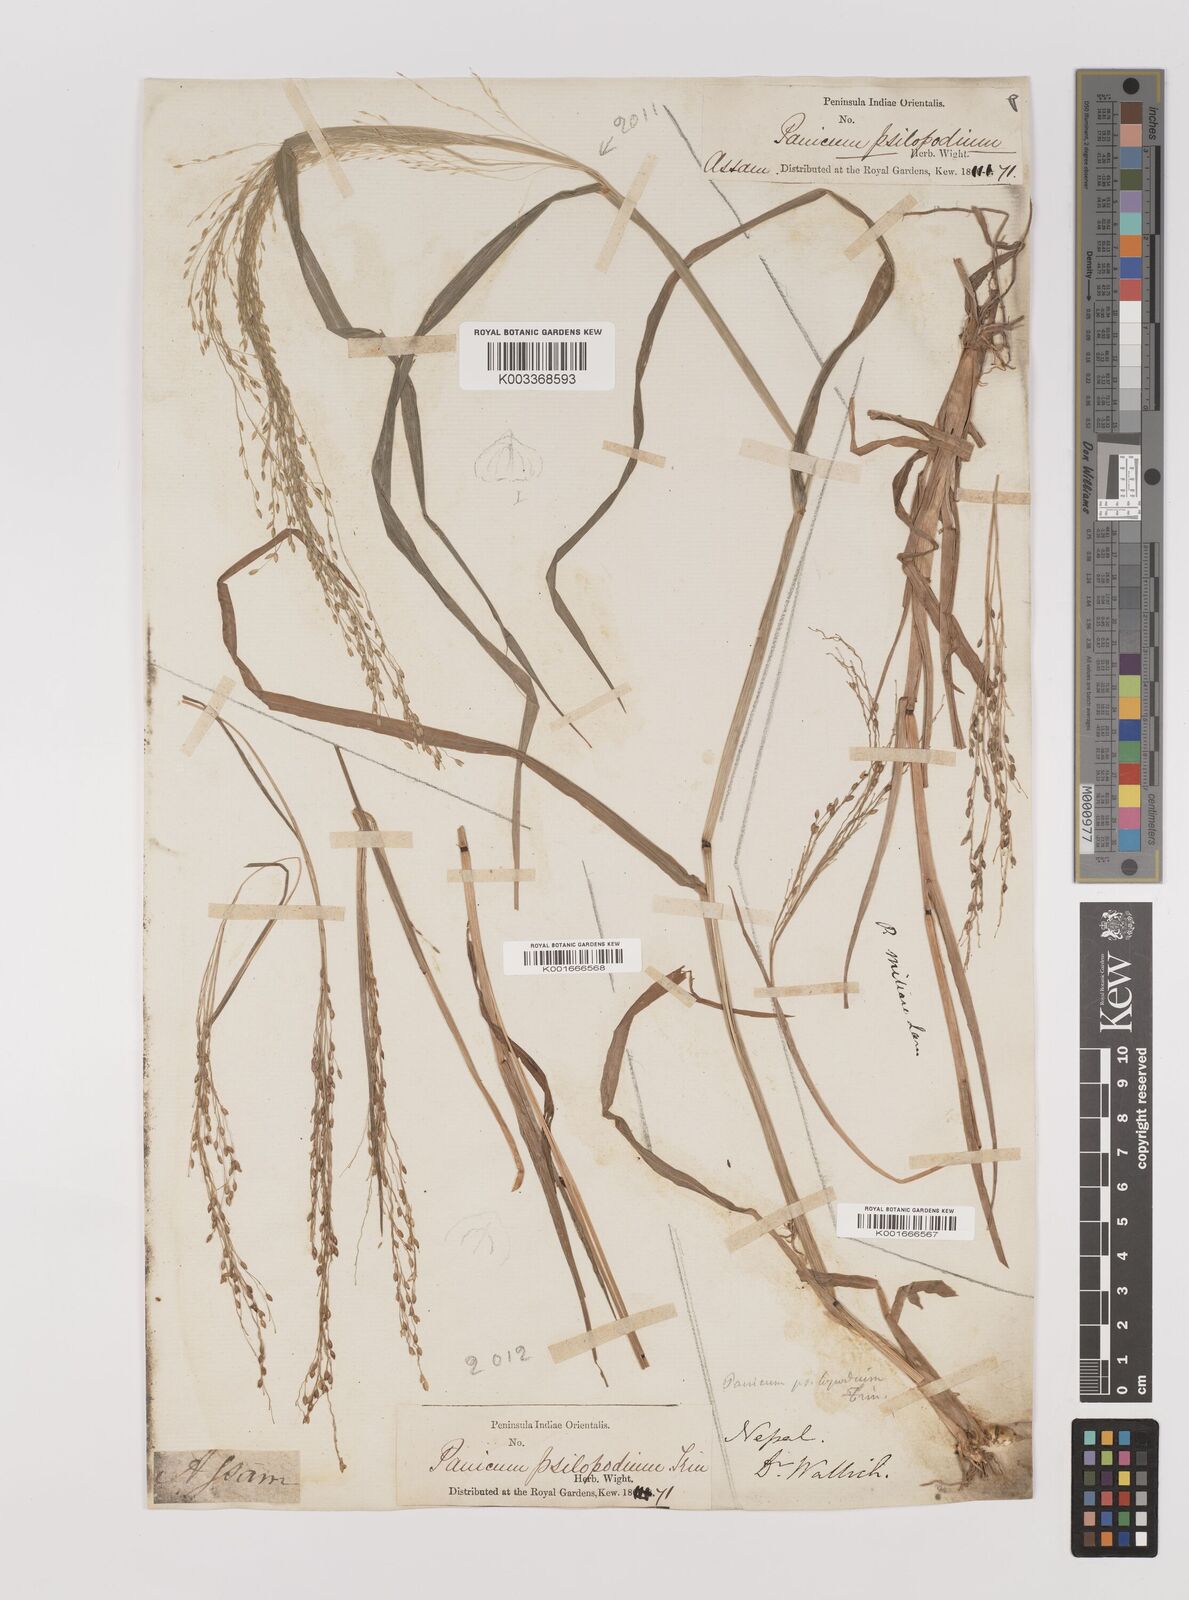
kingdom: Plantae
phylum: Tracheophyta
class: Liliopsida
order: Poales
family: Poaceae
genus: Panicum
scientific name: Panicum sumatrense
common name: Little millet
